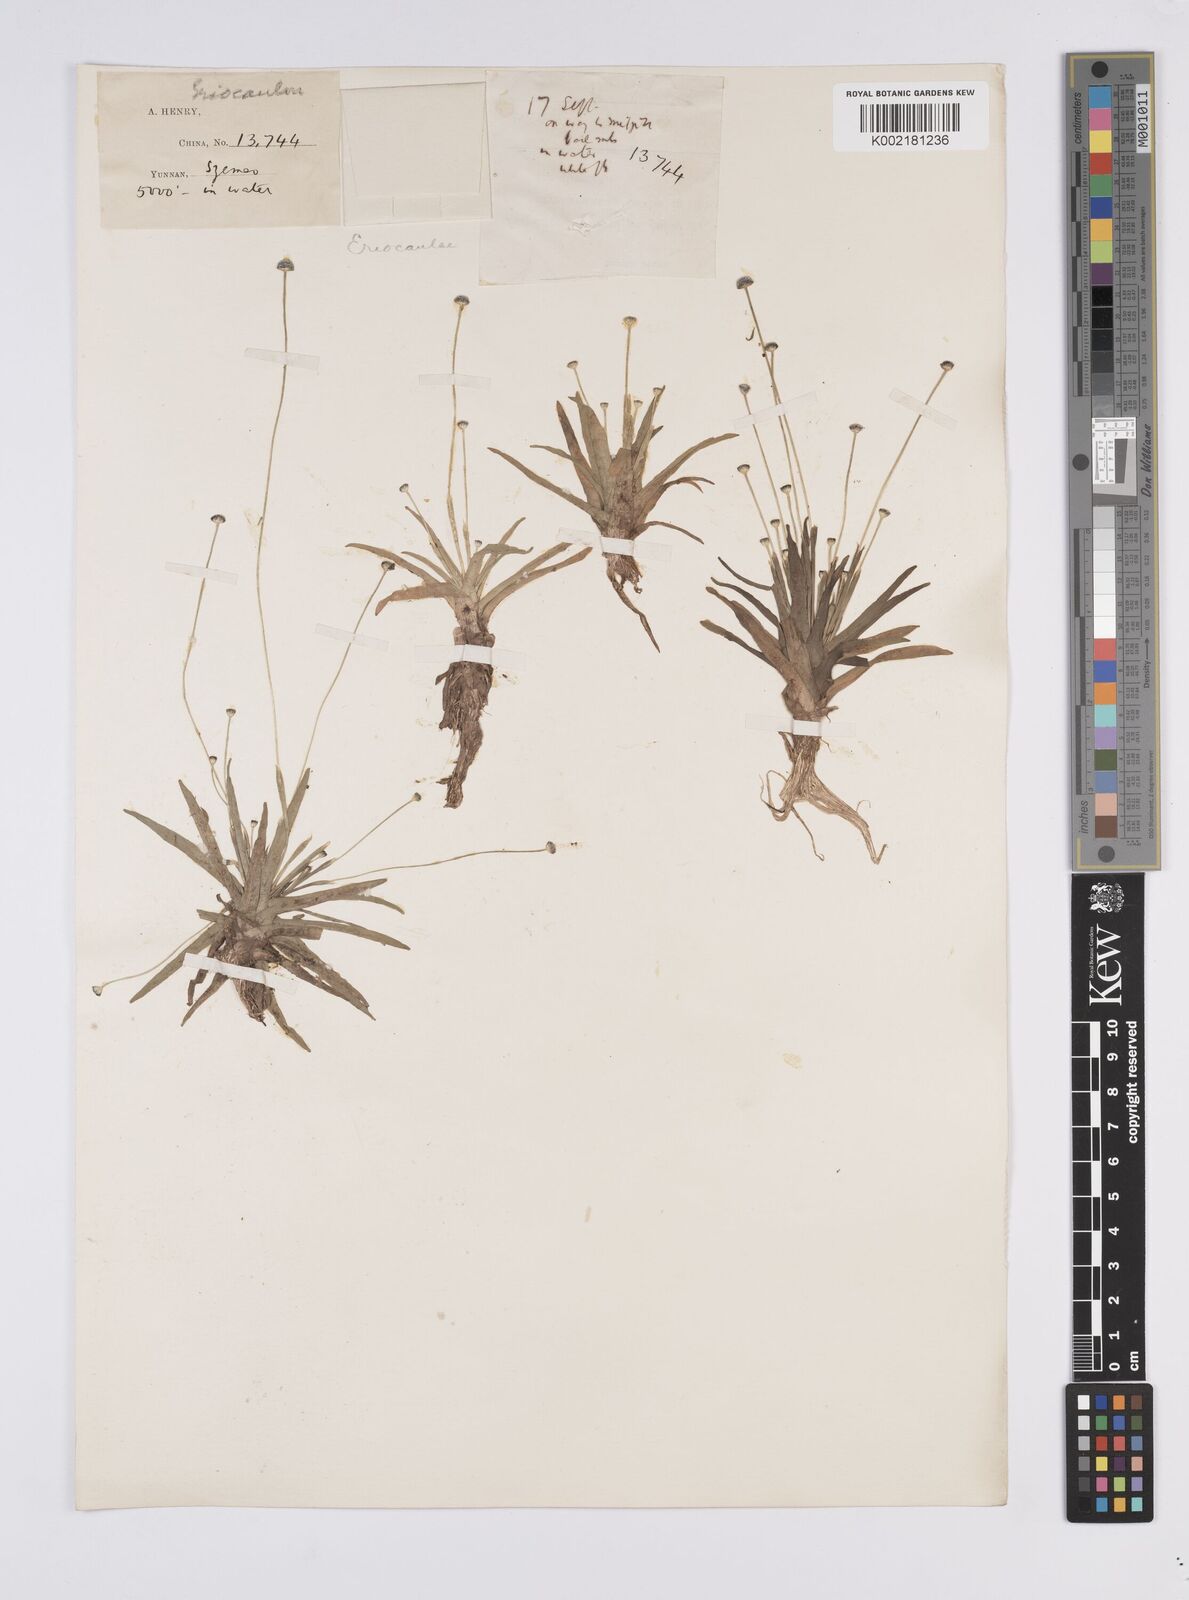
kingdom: Plantae
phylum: Tracheophyta
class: Liliopsida
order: Poales
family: Eriocaulaceae
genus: Eriocaulon
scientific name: Eriocaulon
